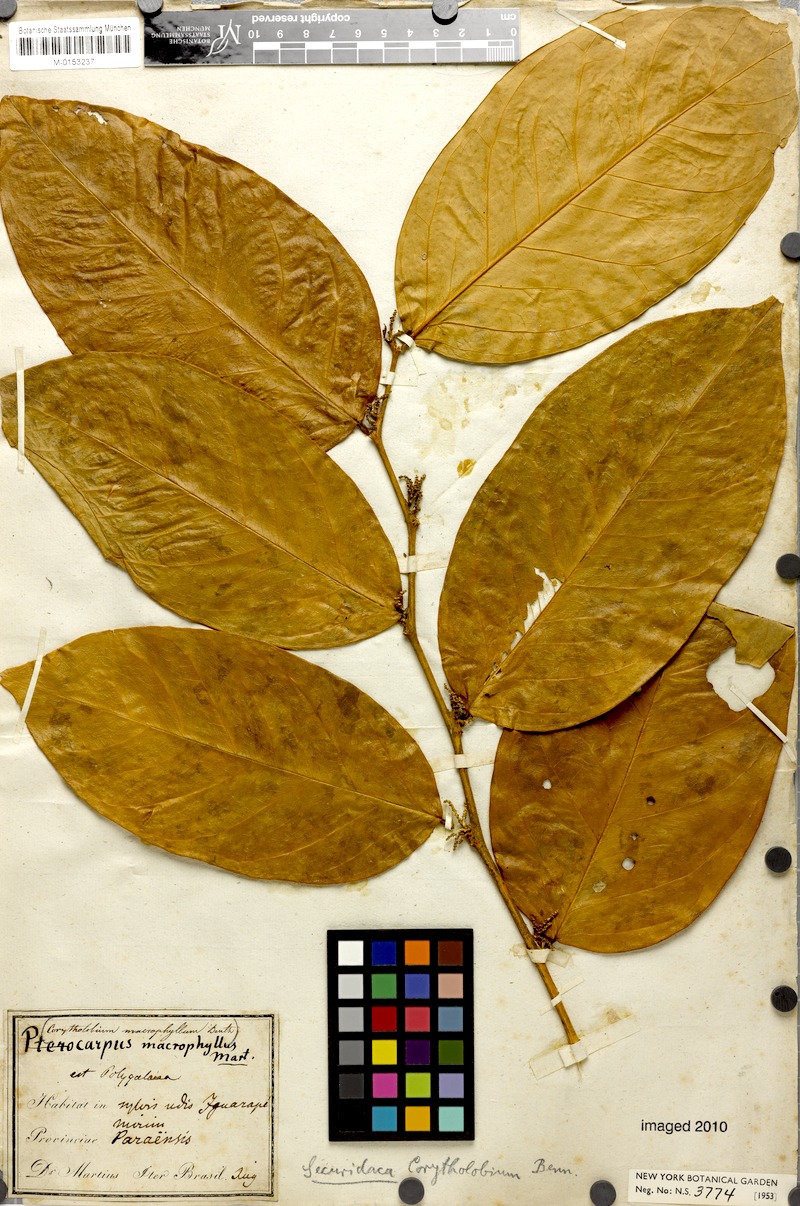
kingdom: Plantae
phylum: Tracheophyta
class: Magnoliopsida
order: Fabales
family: Polygalaceae
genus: Securidaca
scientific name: Securidaca calophylla
